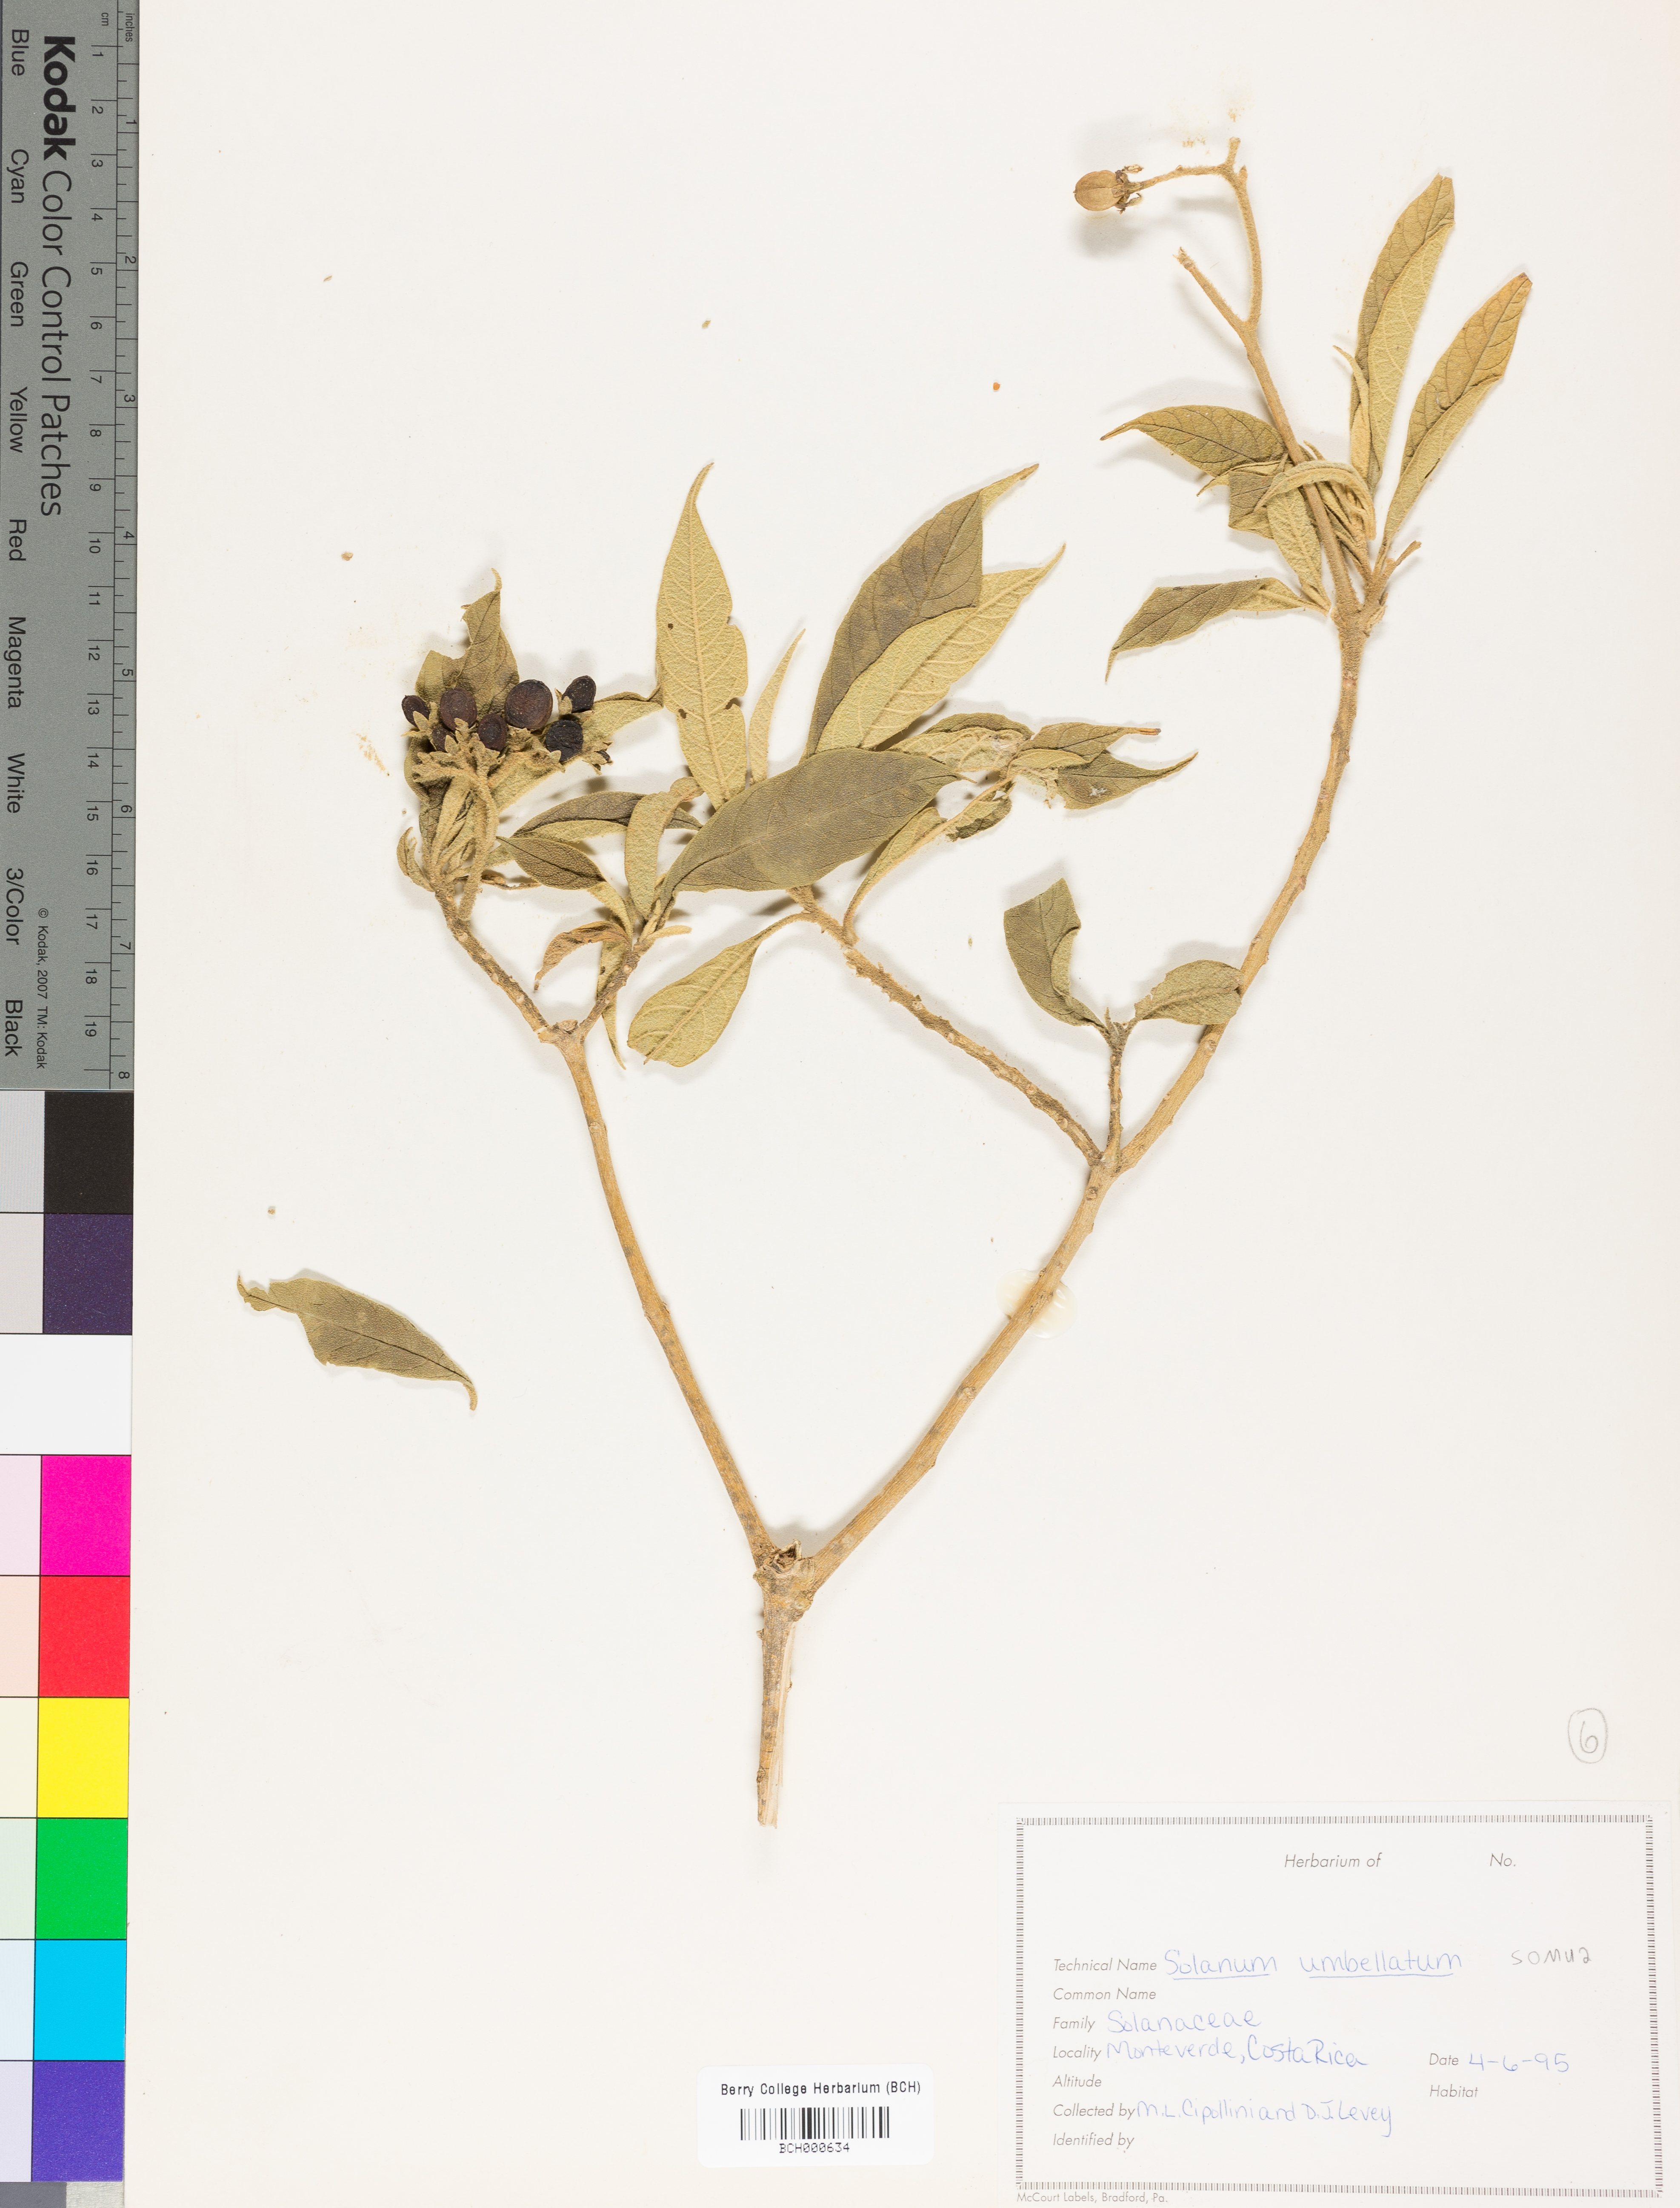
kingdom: Plantae
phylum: Tracheophyta
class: Magnoliopsida
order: Solanales
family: Solanaceae
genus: Lycianthes
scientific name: Lycianthes pauciflora
